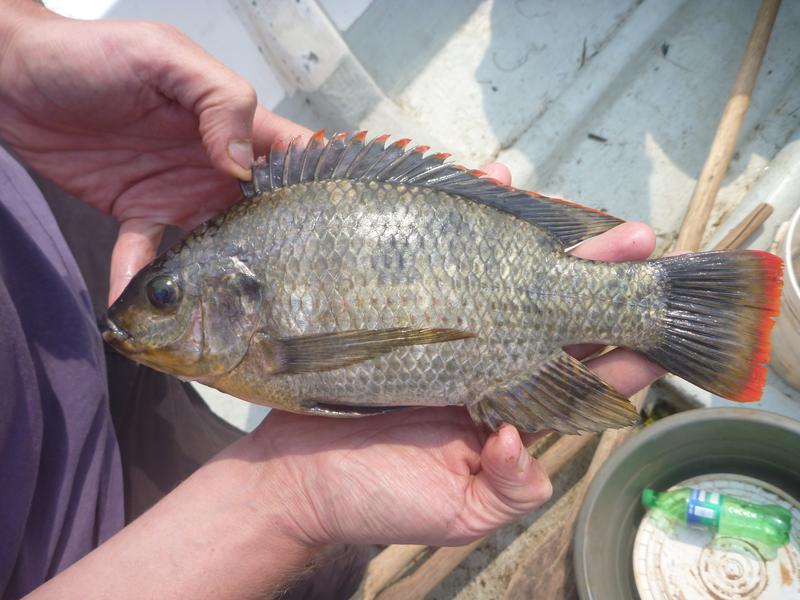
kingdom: Animalia
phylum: Chordata
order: Perciformes
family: Cichlidae
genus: Oreochromis
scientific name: Oreochromis variabilis
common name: Victoria tilapia
